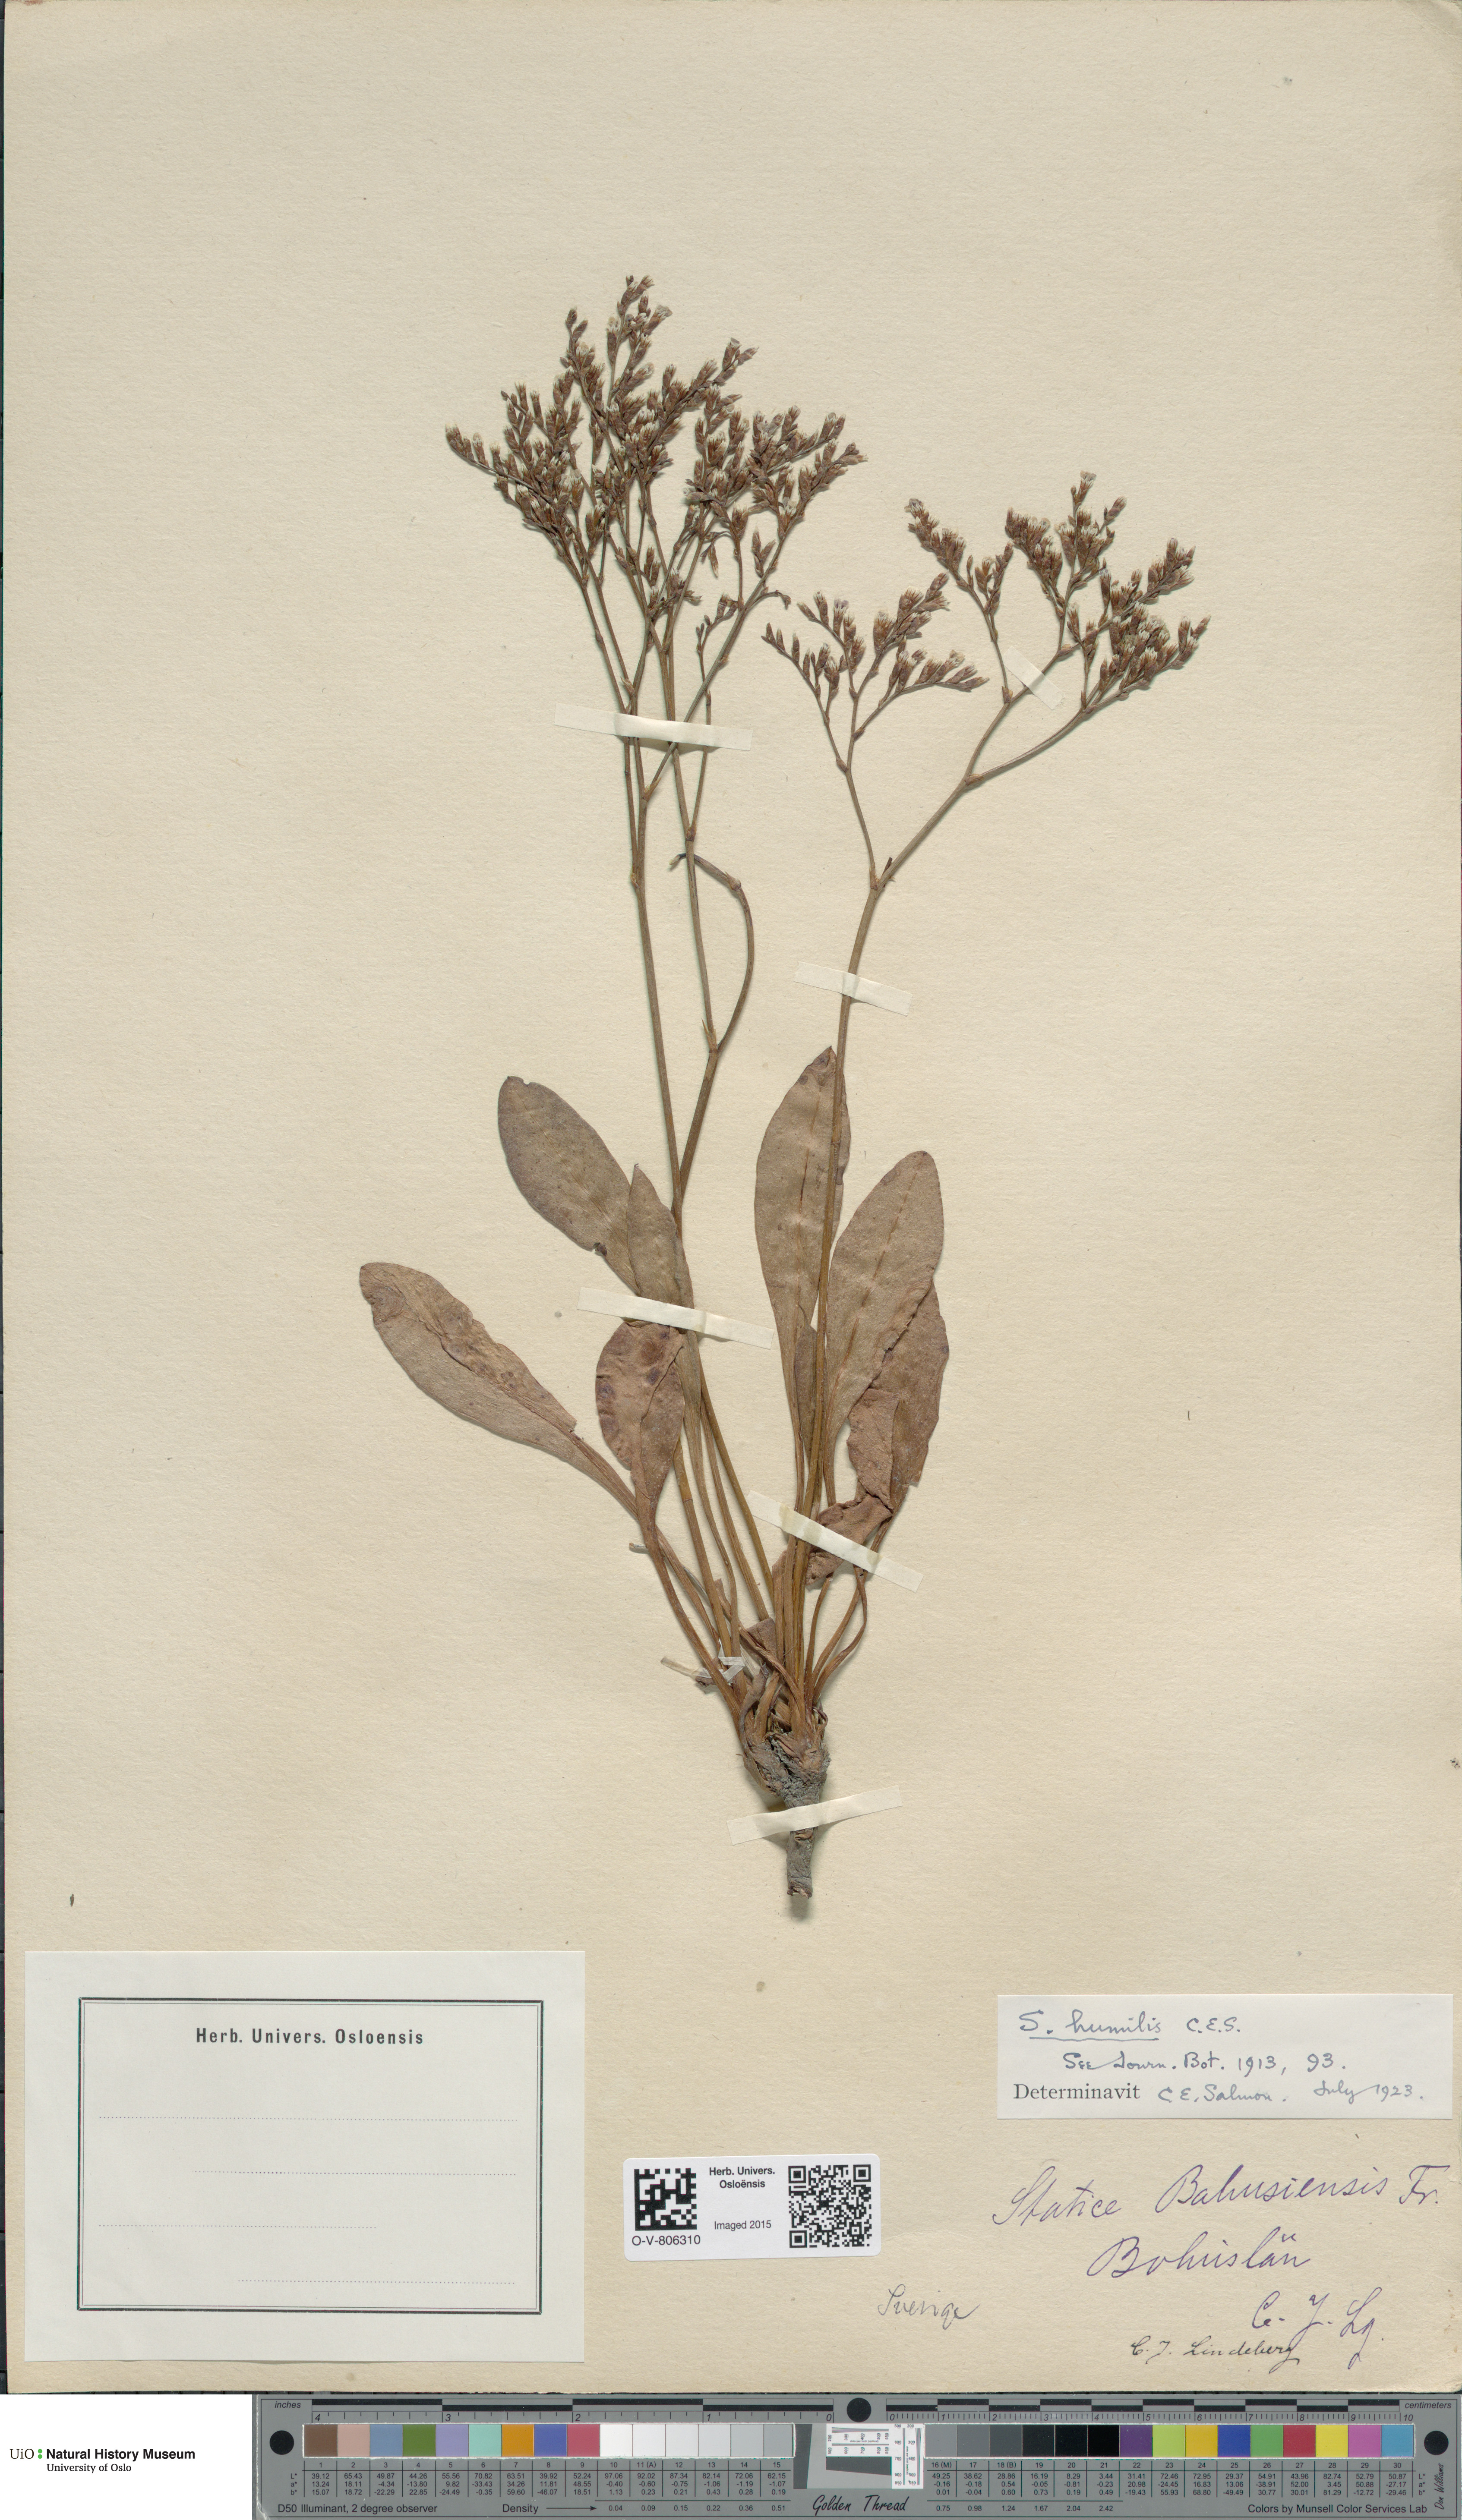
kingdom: Plantae
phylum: Tracheophyta
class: Magnoliopsida
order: Caryophyllales
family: Plumbaginaceae
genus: Limonium
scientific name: Limonium humile
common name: Lax-flowered sea-lavender
